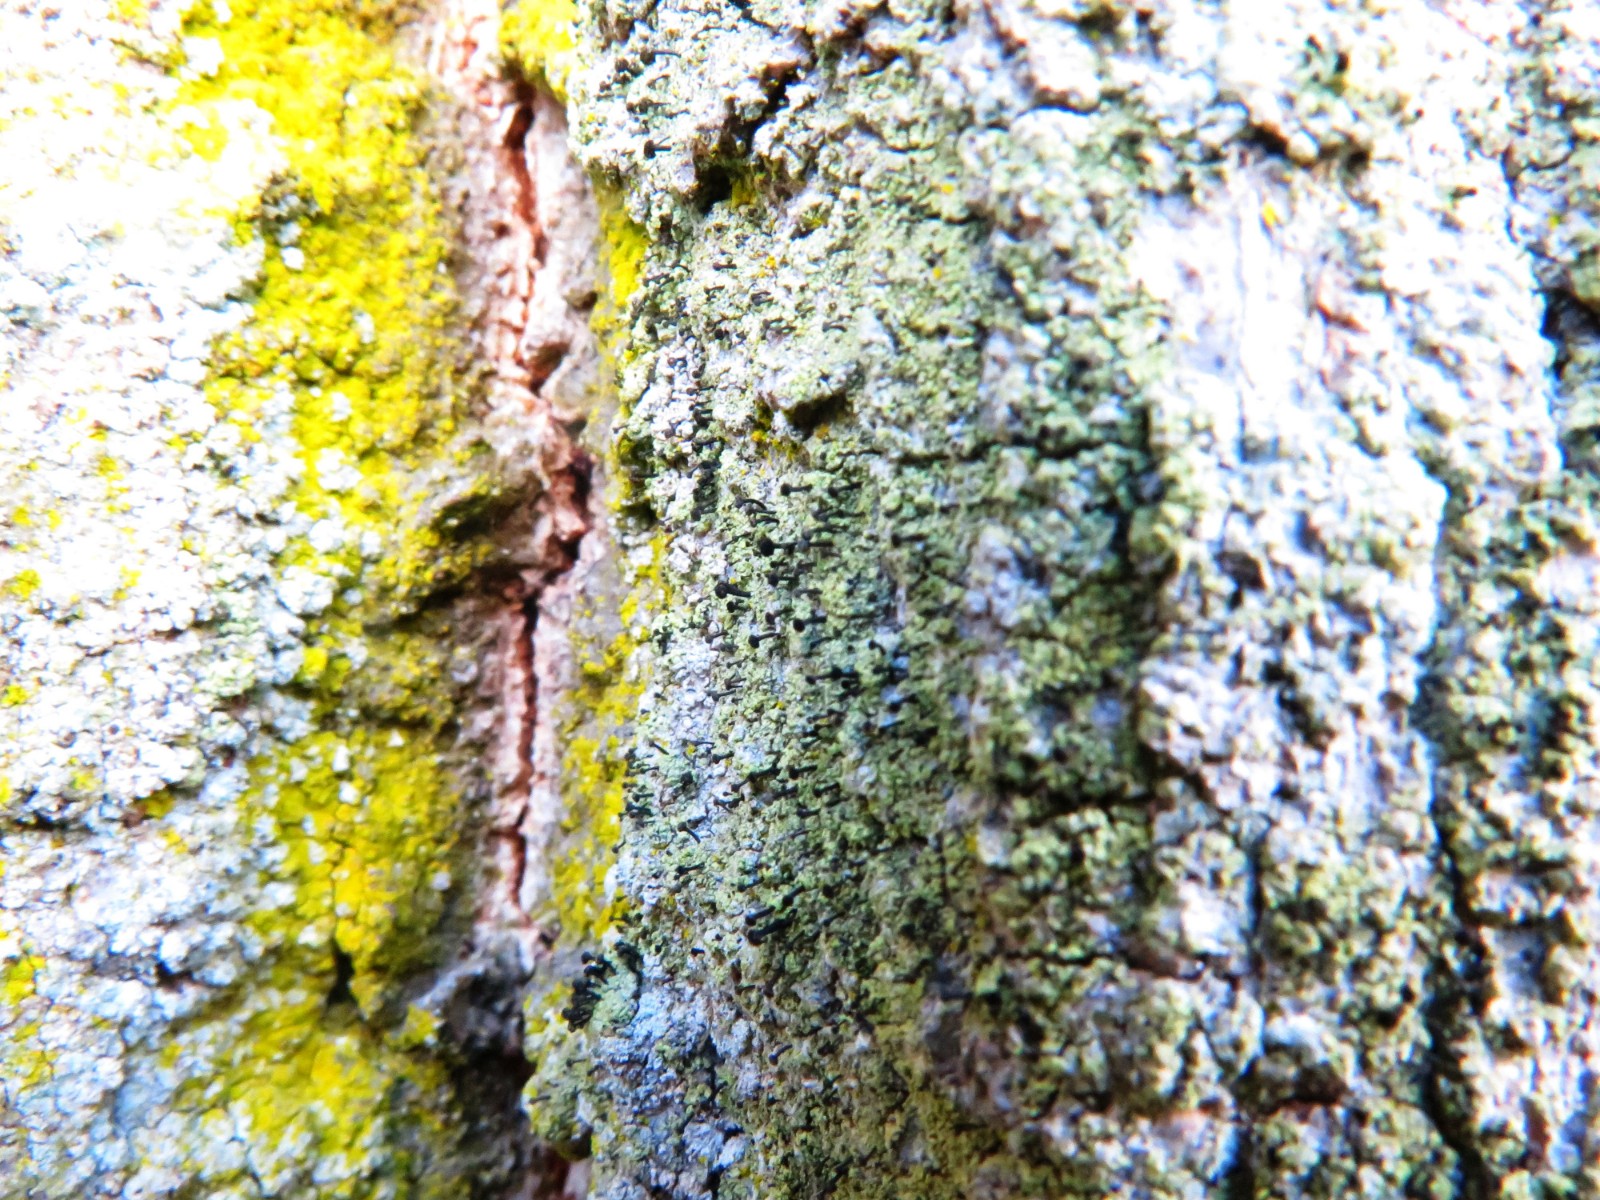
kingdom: Fungi
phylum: Ascomycota
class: Lecanoromycetes
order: Caliciales
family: Caliciaceae
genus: Calicium
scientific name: Calicium viride
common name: gulgrøn nålelav
